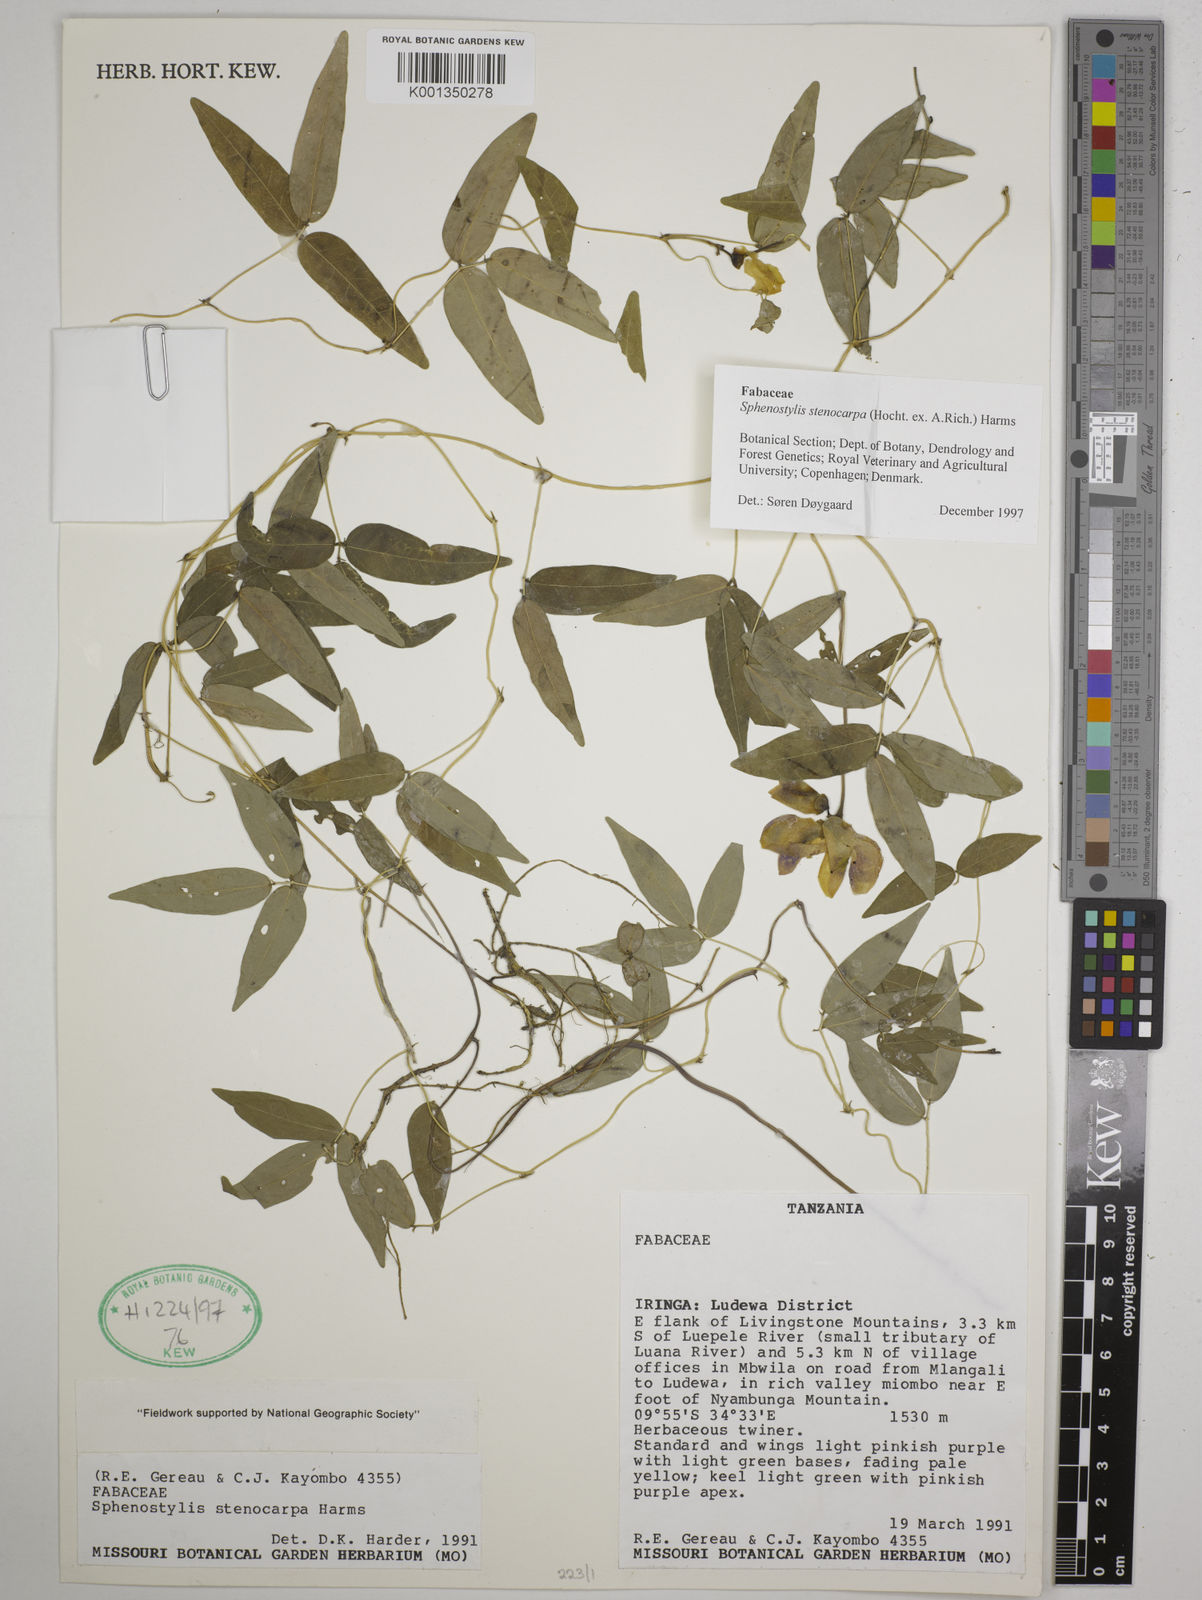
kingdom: Plantae
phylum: Tracheophyta
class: Magnoliopsida
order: Fabales
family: Fabaceae
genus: Sphenostylis
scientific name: Sphenostylis stenocarpa
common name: Yam-pea
